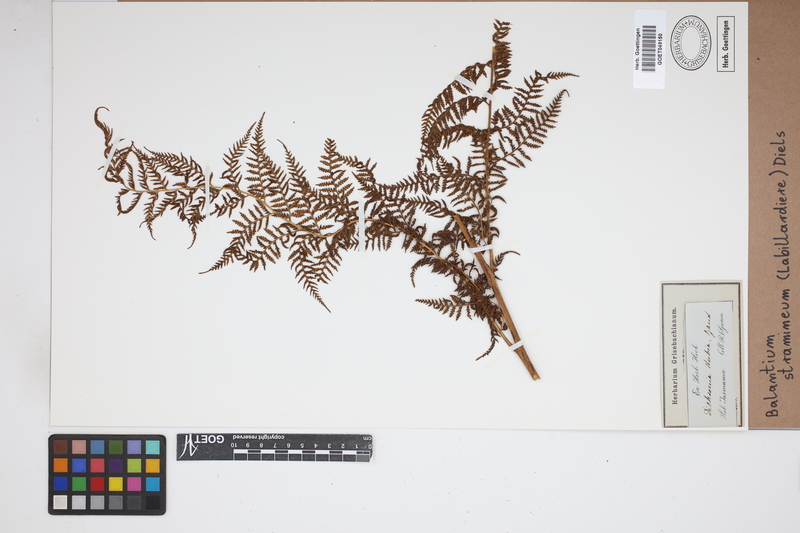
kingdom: Plantae
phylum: Tracheophyta
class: Polypodiopsida
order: Cyatheales
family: Dicksoniaceae
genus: Calochlaena
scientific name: Calochlaena straminea
